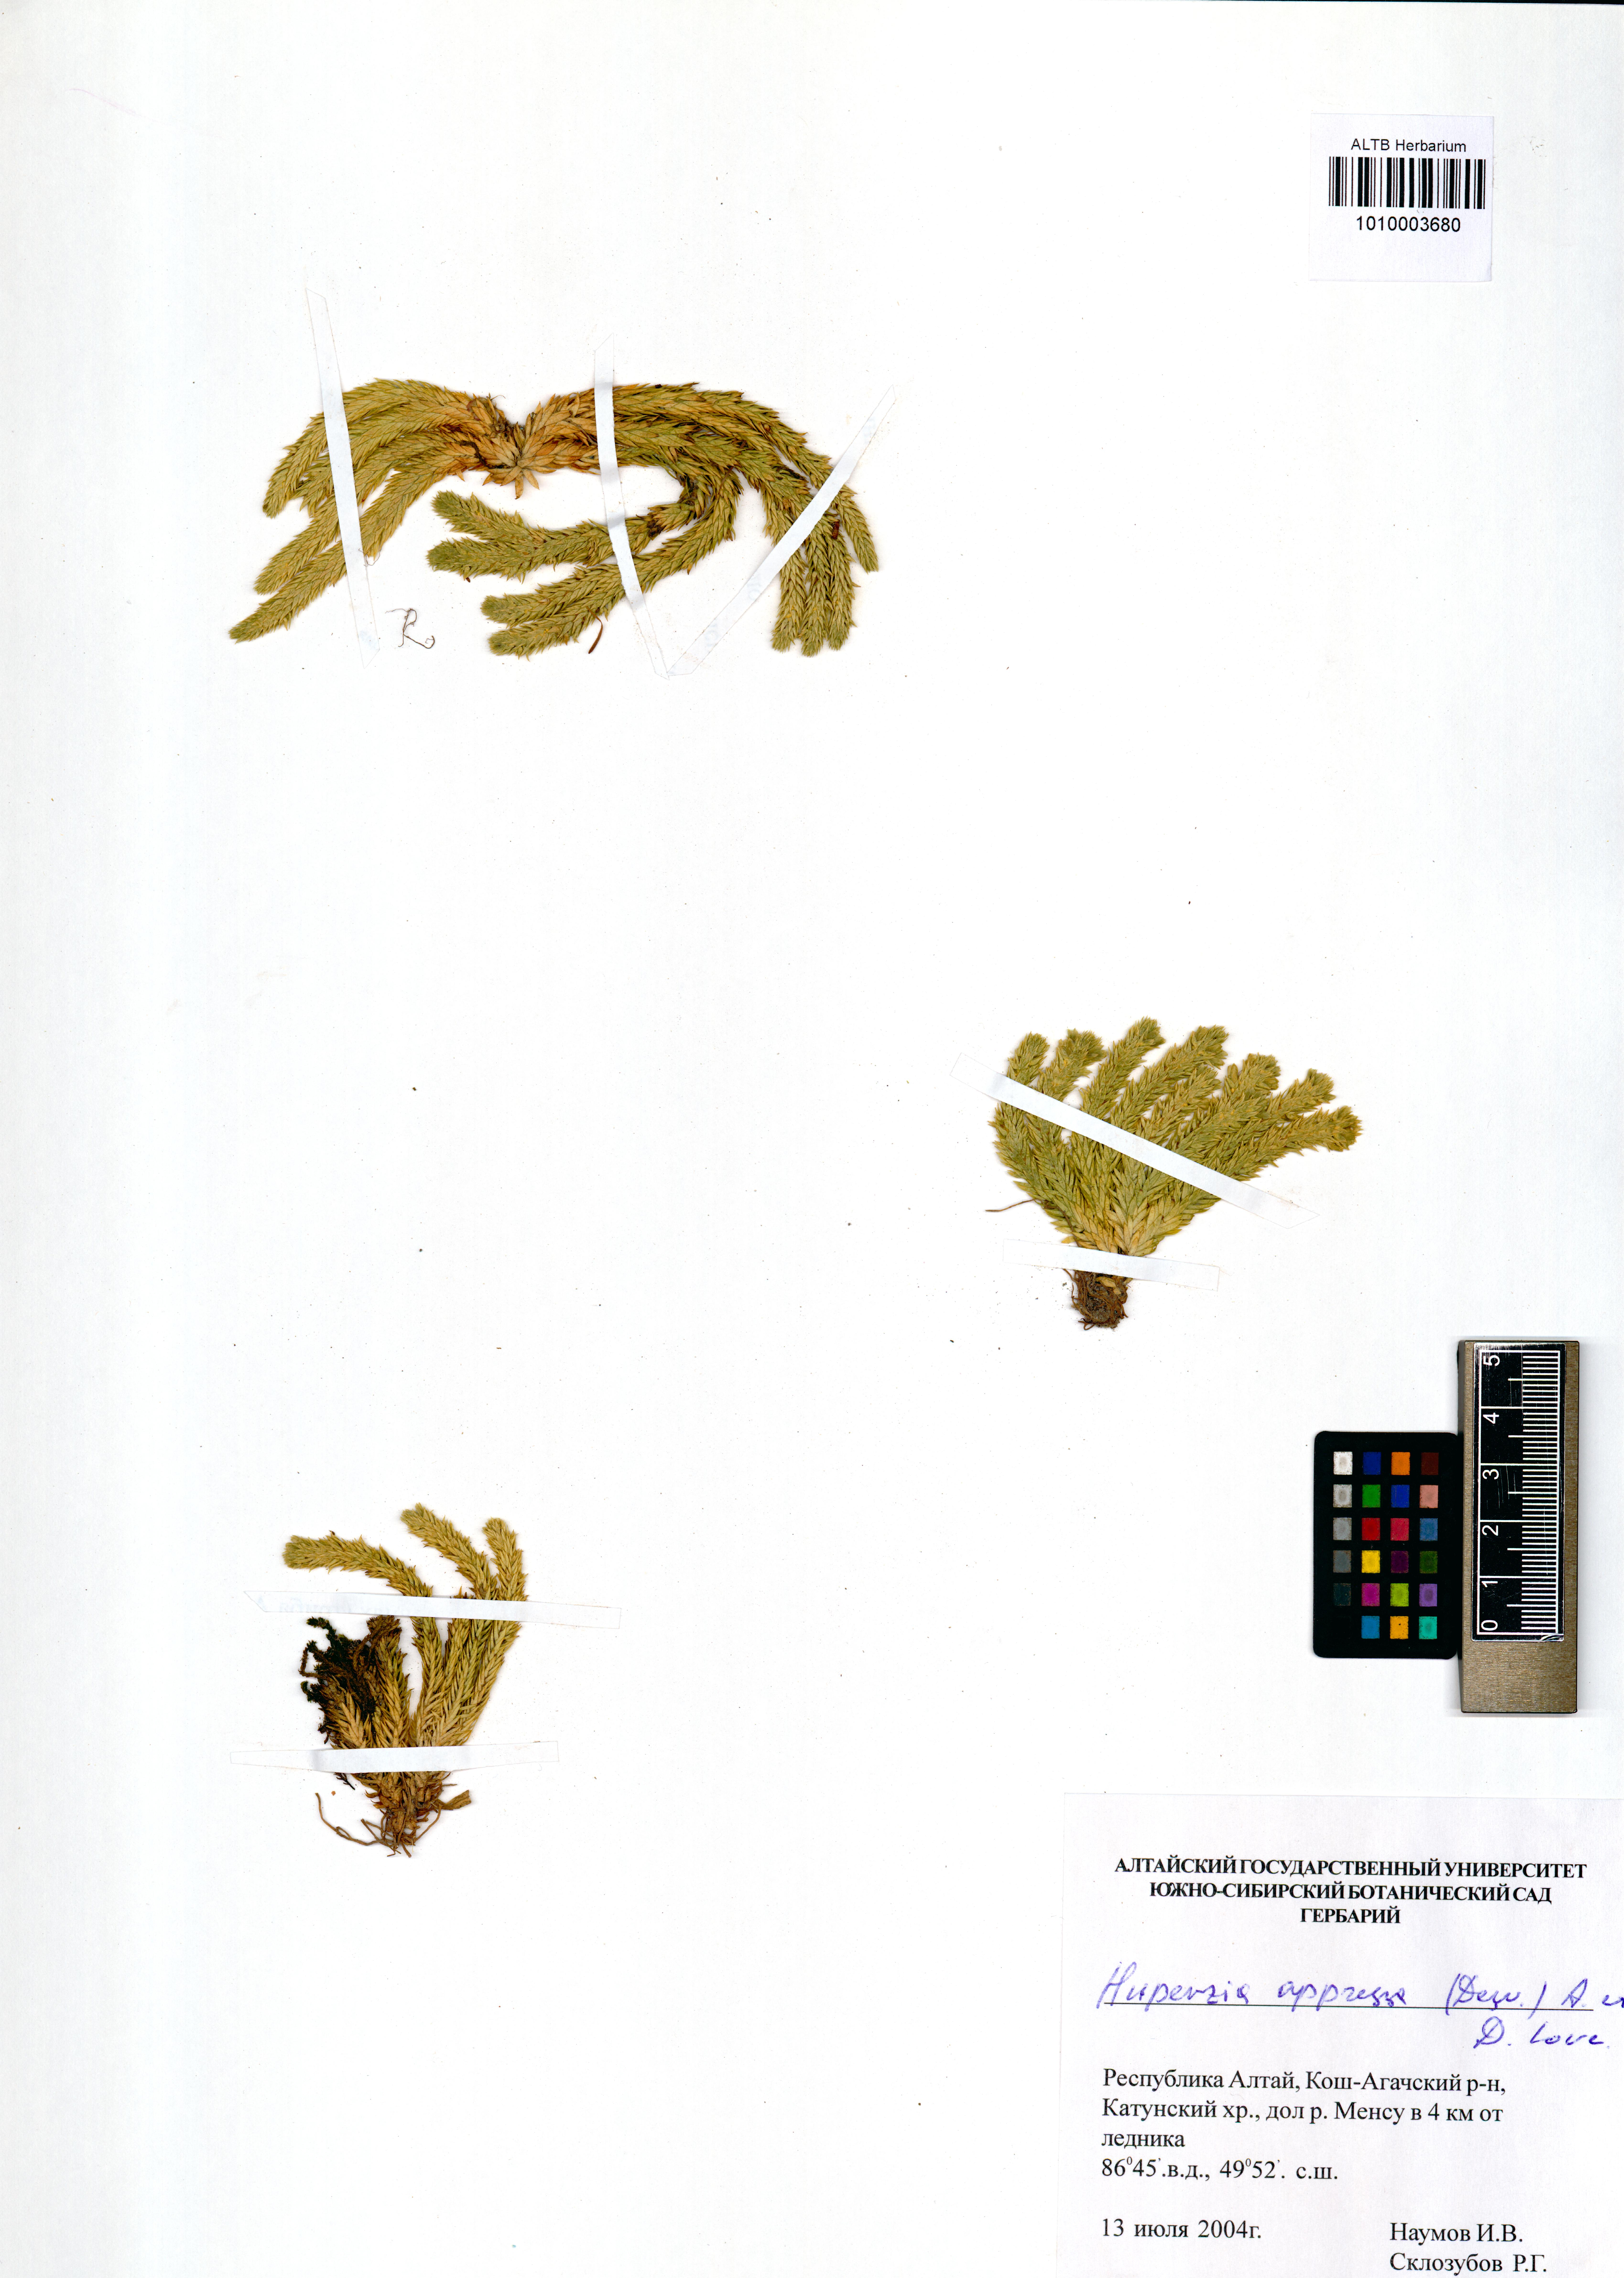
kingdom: Plantae
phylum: Tracheophyta
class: Lycopodiopsida
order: Lycopodiales
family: Lycopodiaceae
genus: Huperzia
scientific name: Huperzia selago
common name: Northern firmoss
